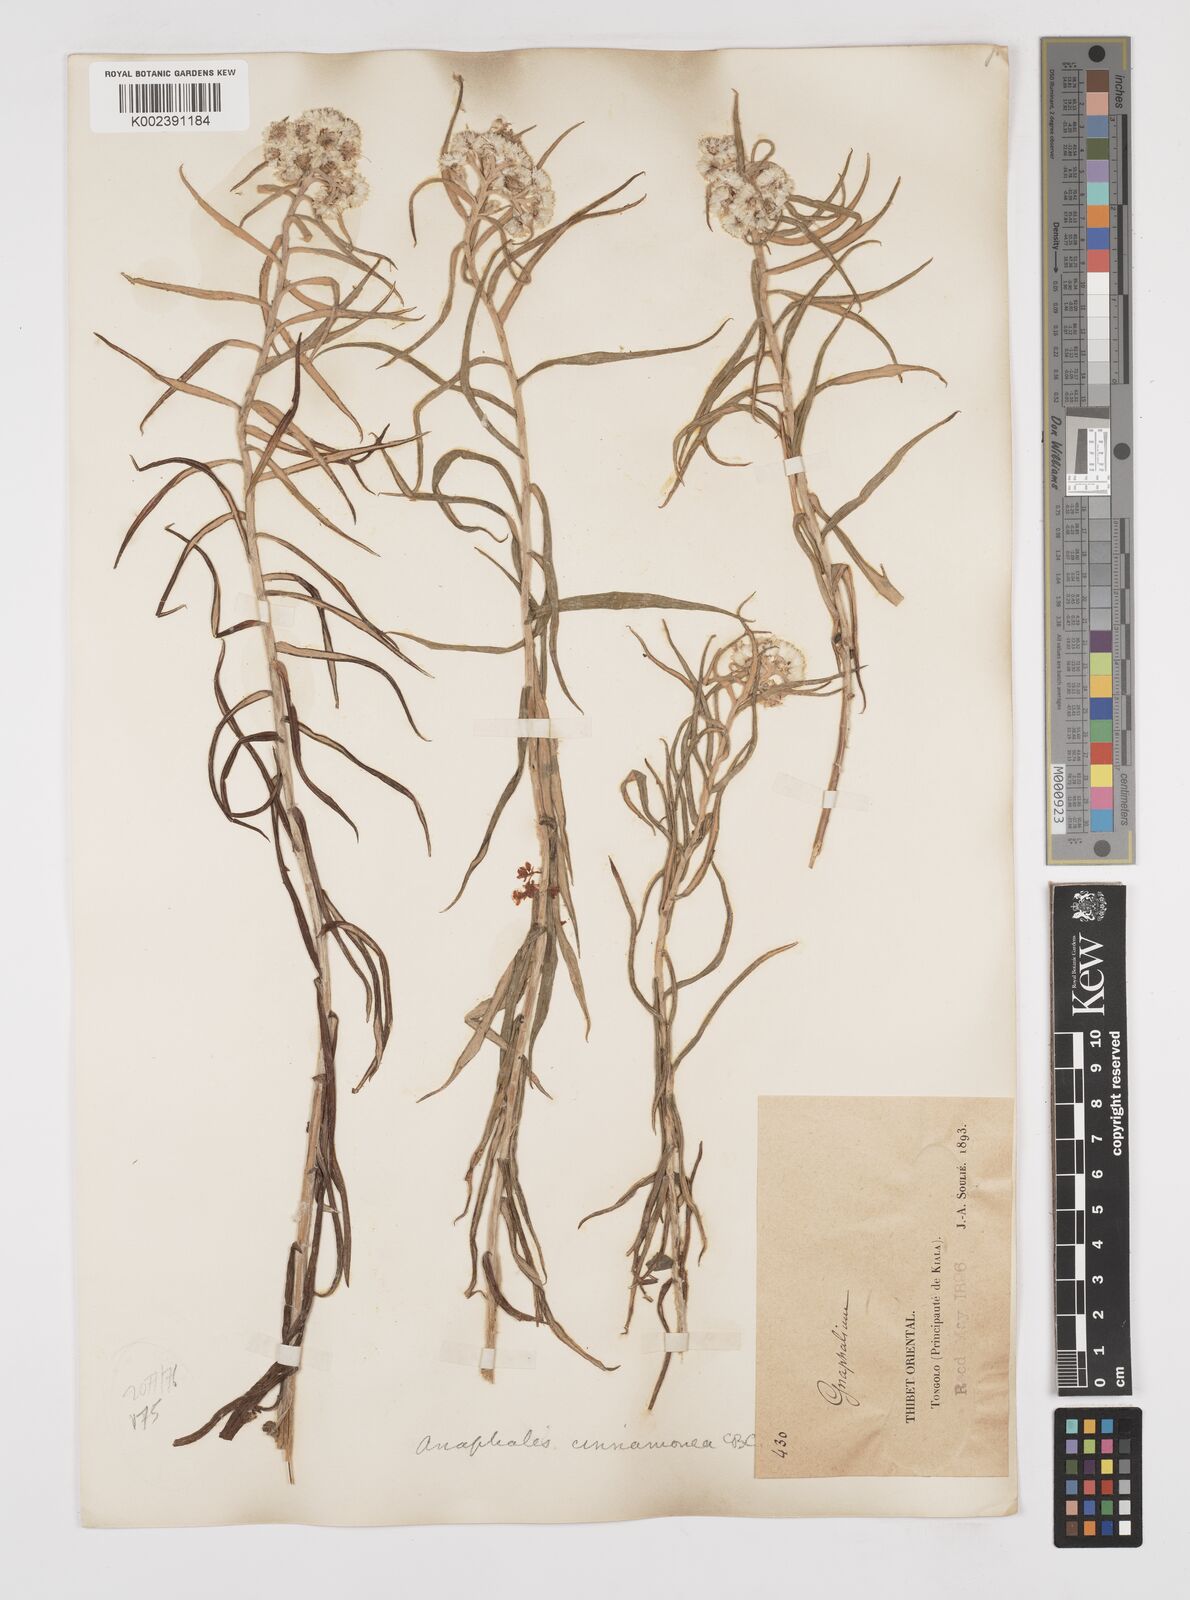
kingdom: Plantae
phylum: Tracheophyta
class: Magnoliopsida
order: Asterales
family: Asteraceae
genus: Anaphalis
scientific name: Anaphalis margaritacea
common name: Pearly everlasting
